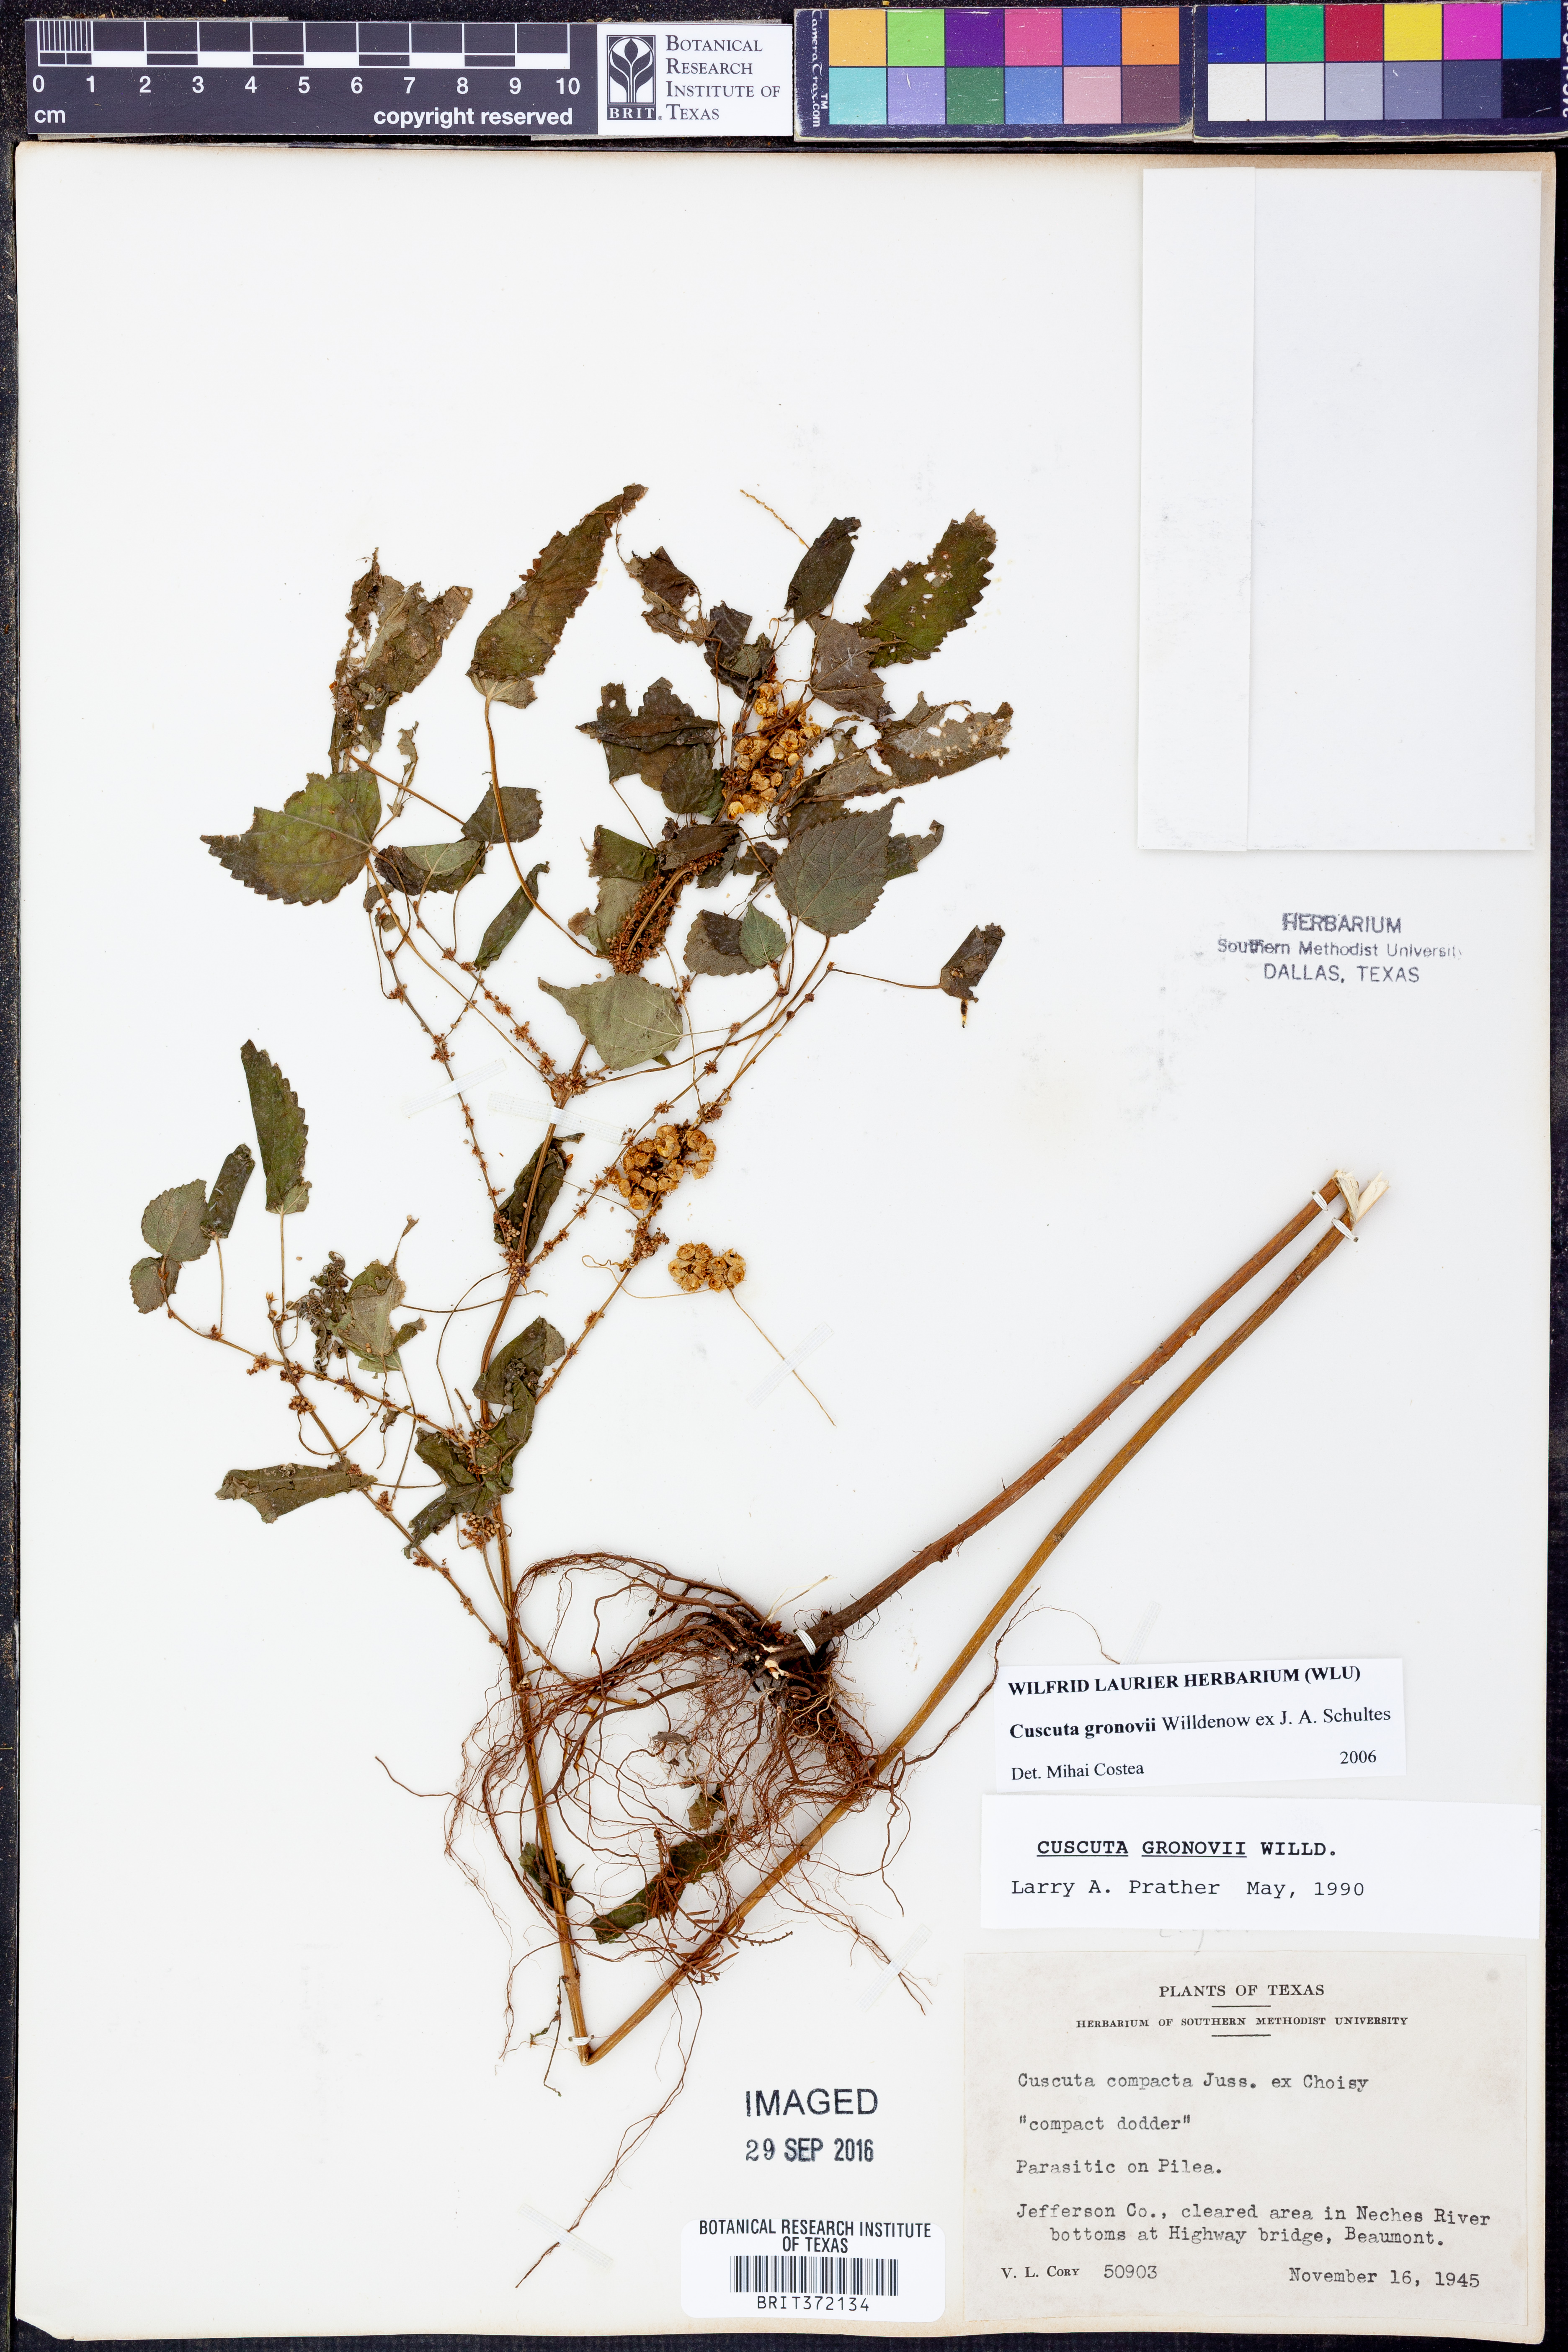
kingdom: Plantae
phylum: Tracheophyta
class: Magnoliopsida
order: Solanales
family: Convolvulaceae
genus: Cuscuta
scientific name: Cuscuta gronovii
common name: Common dodder
